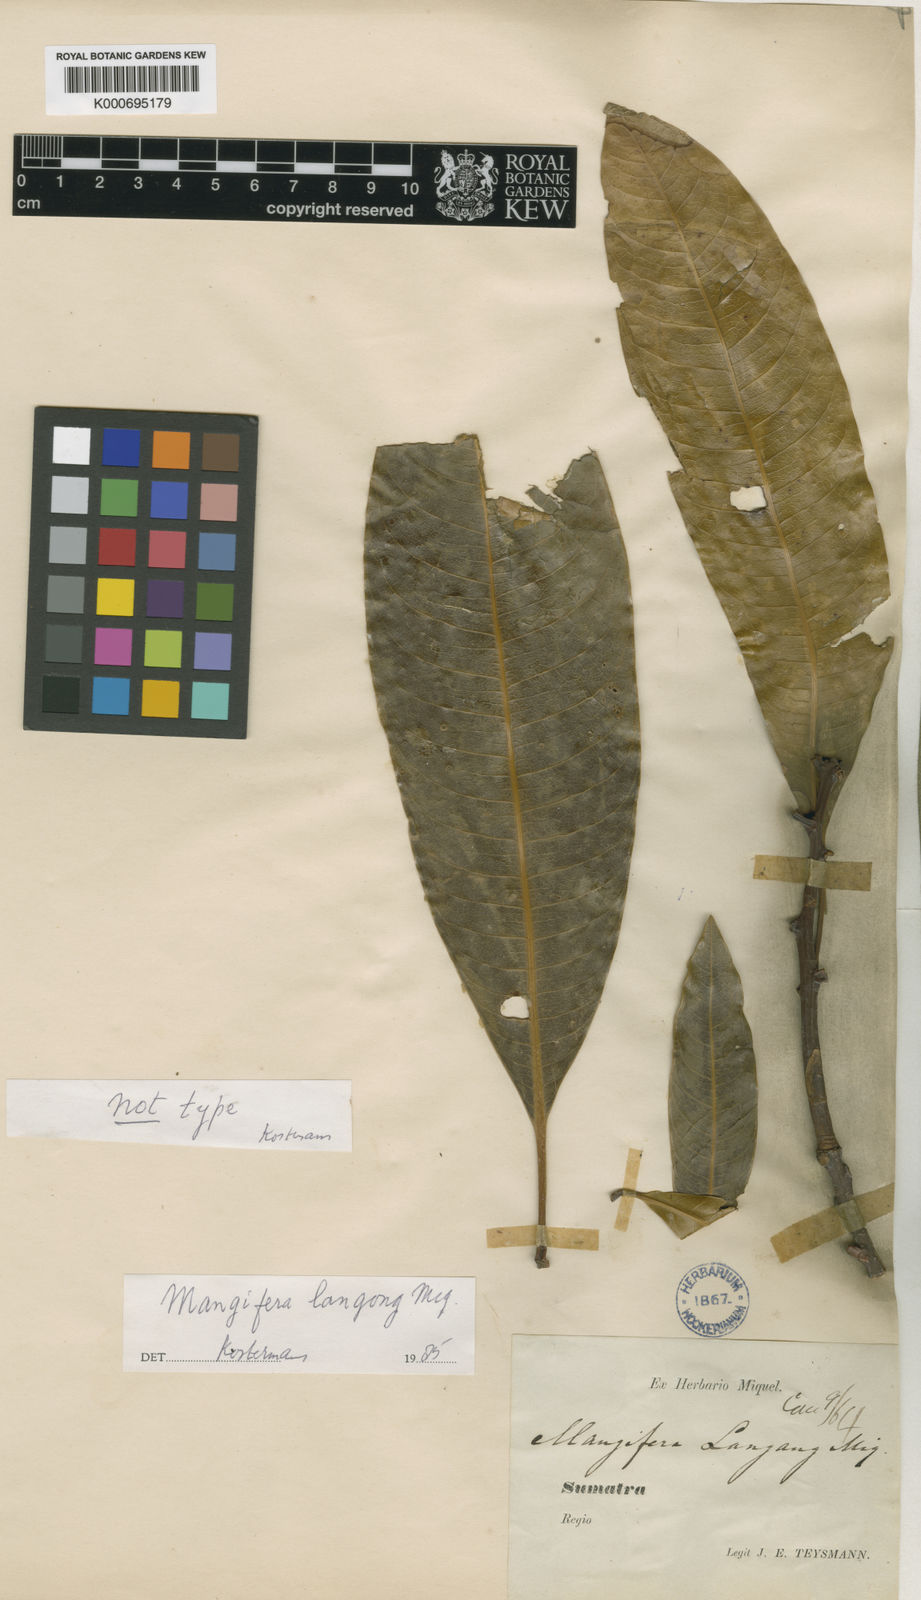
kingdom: Plantae
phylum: Tracheophyta
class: Magnoliopsida
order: Sapindales
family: Anacardiaceae
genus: Mangifera
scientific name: Mangifera quadrifida
